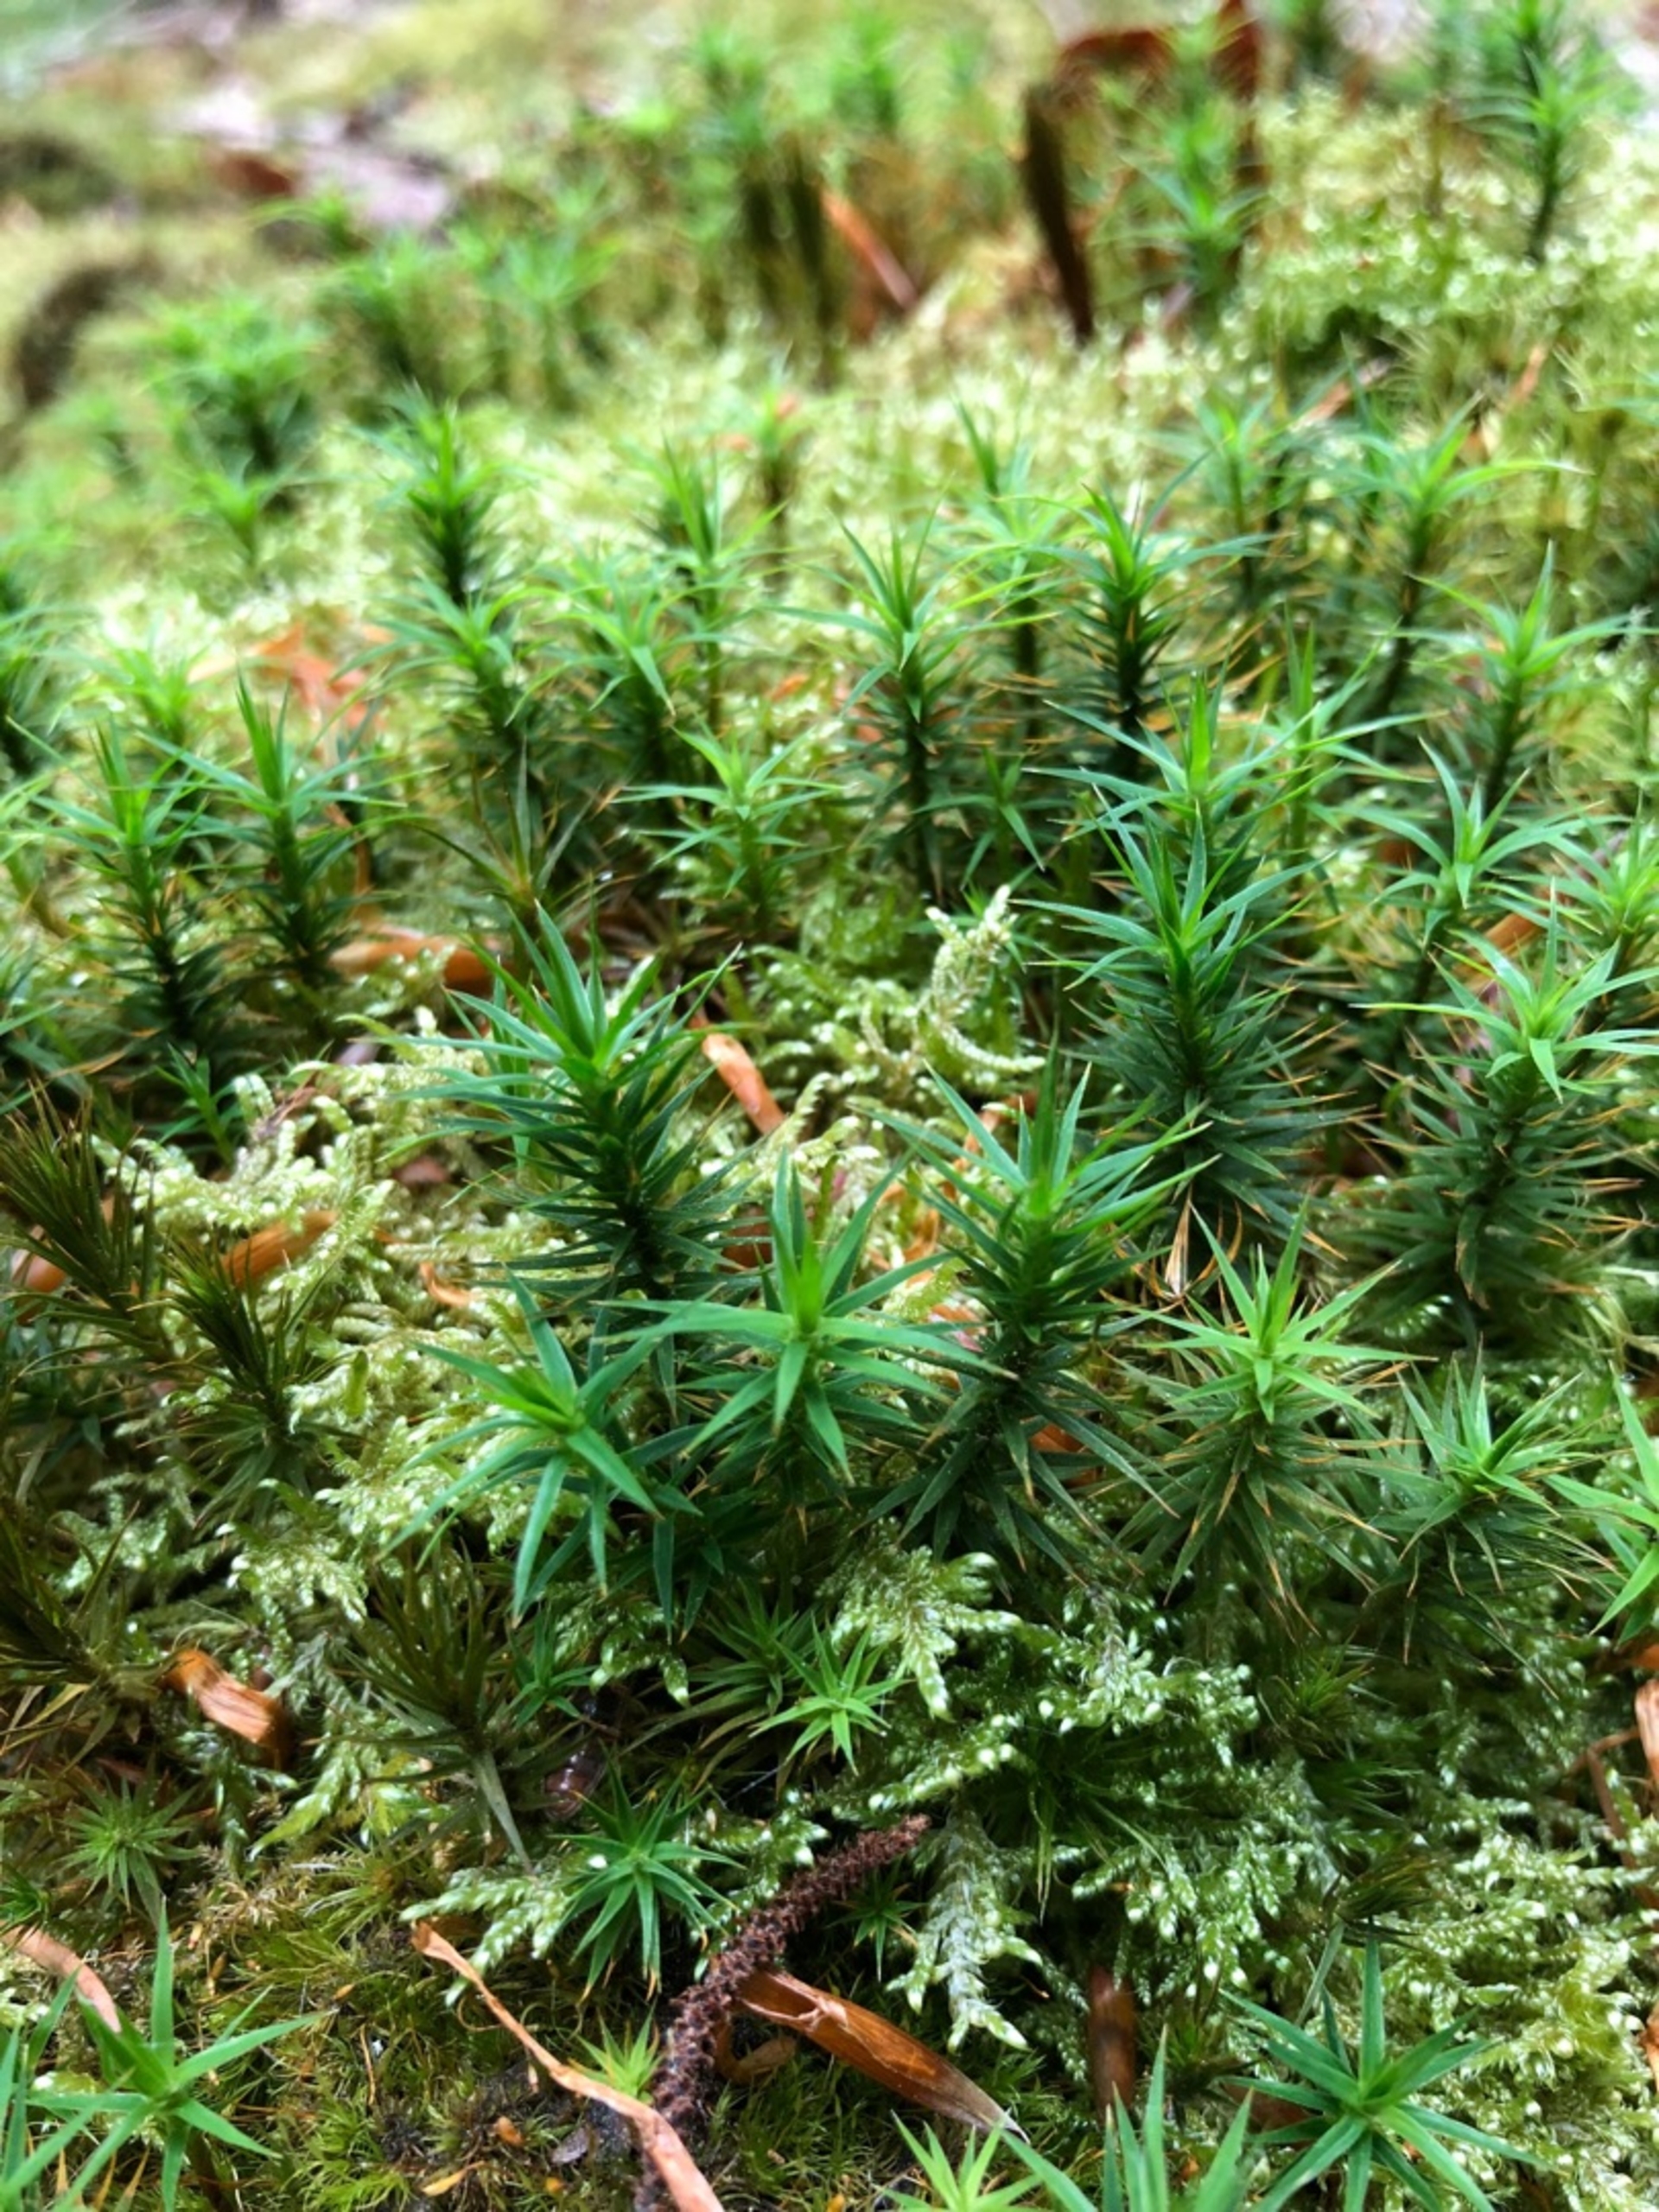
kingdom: Plantae
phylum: Bryophyta
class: Polytrichopsida
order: Polytrichales
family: Polytrichaceae
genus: Polytrichum
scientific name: Polytrichum formosum
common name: Skov-jomfruhår
